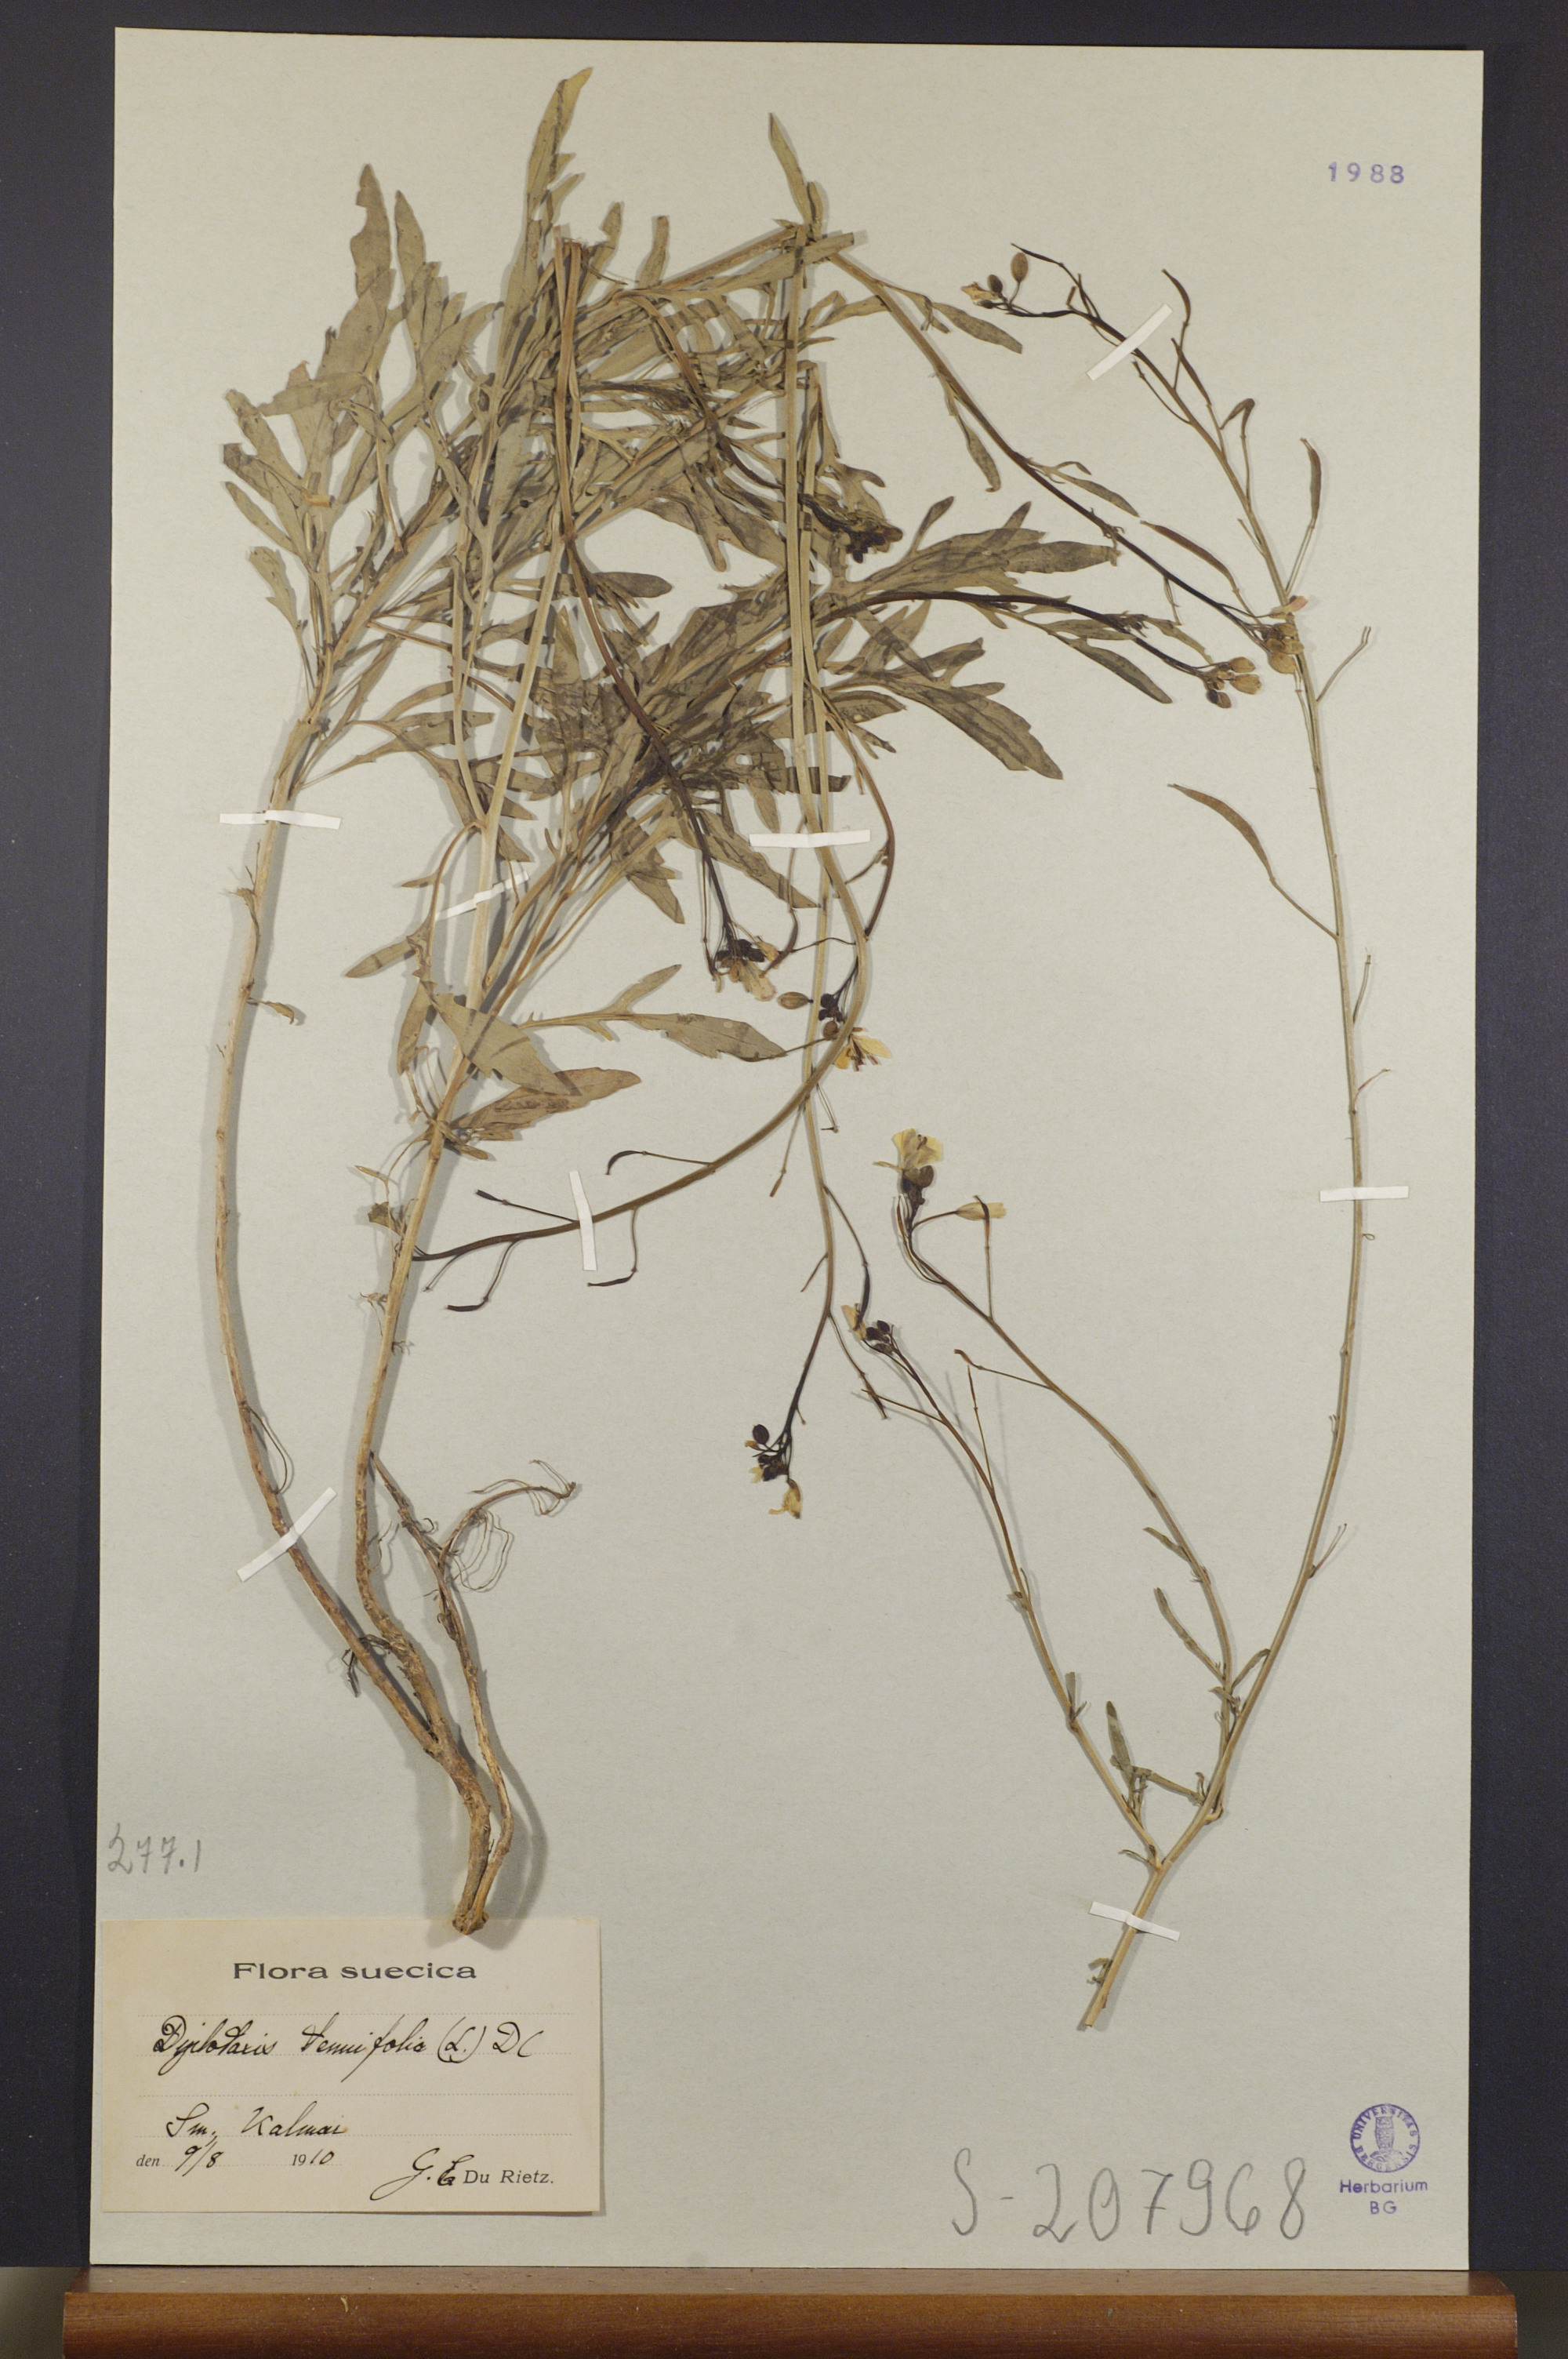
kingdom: Plantae
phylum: Tracheophyta
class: Magnoliopsida
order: Brassicales
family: Brassicaceae
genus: Diplotaxis
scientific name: Diplotaxis tenuifolia
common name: Perennial wall-rocket
